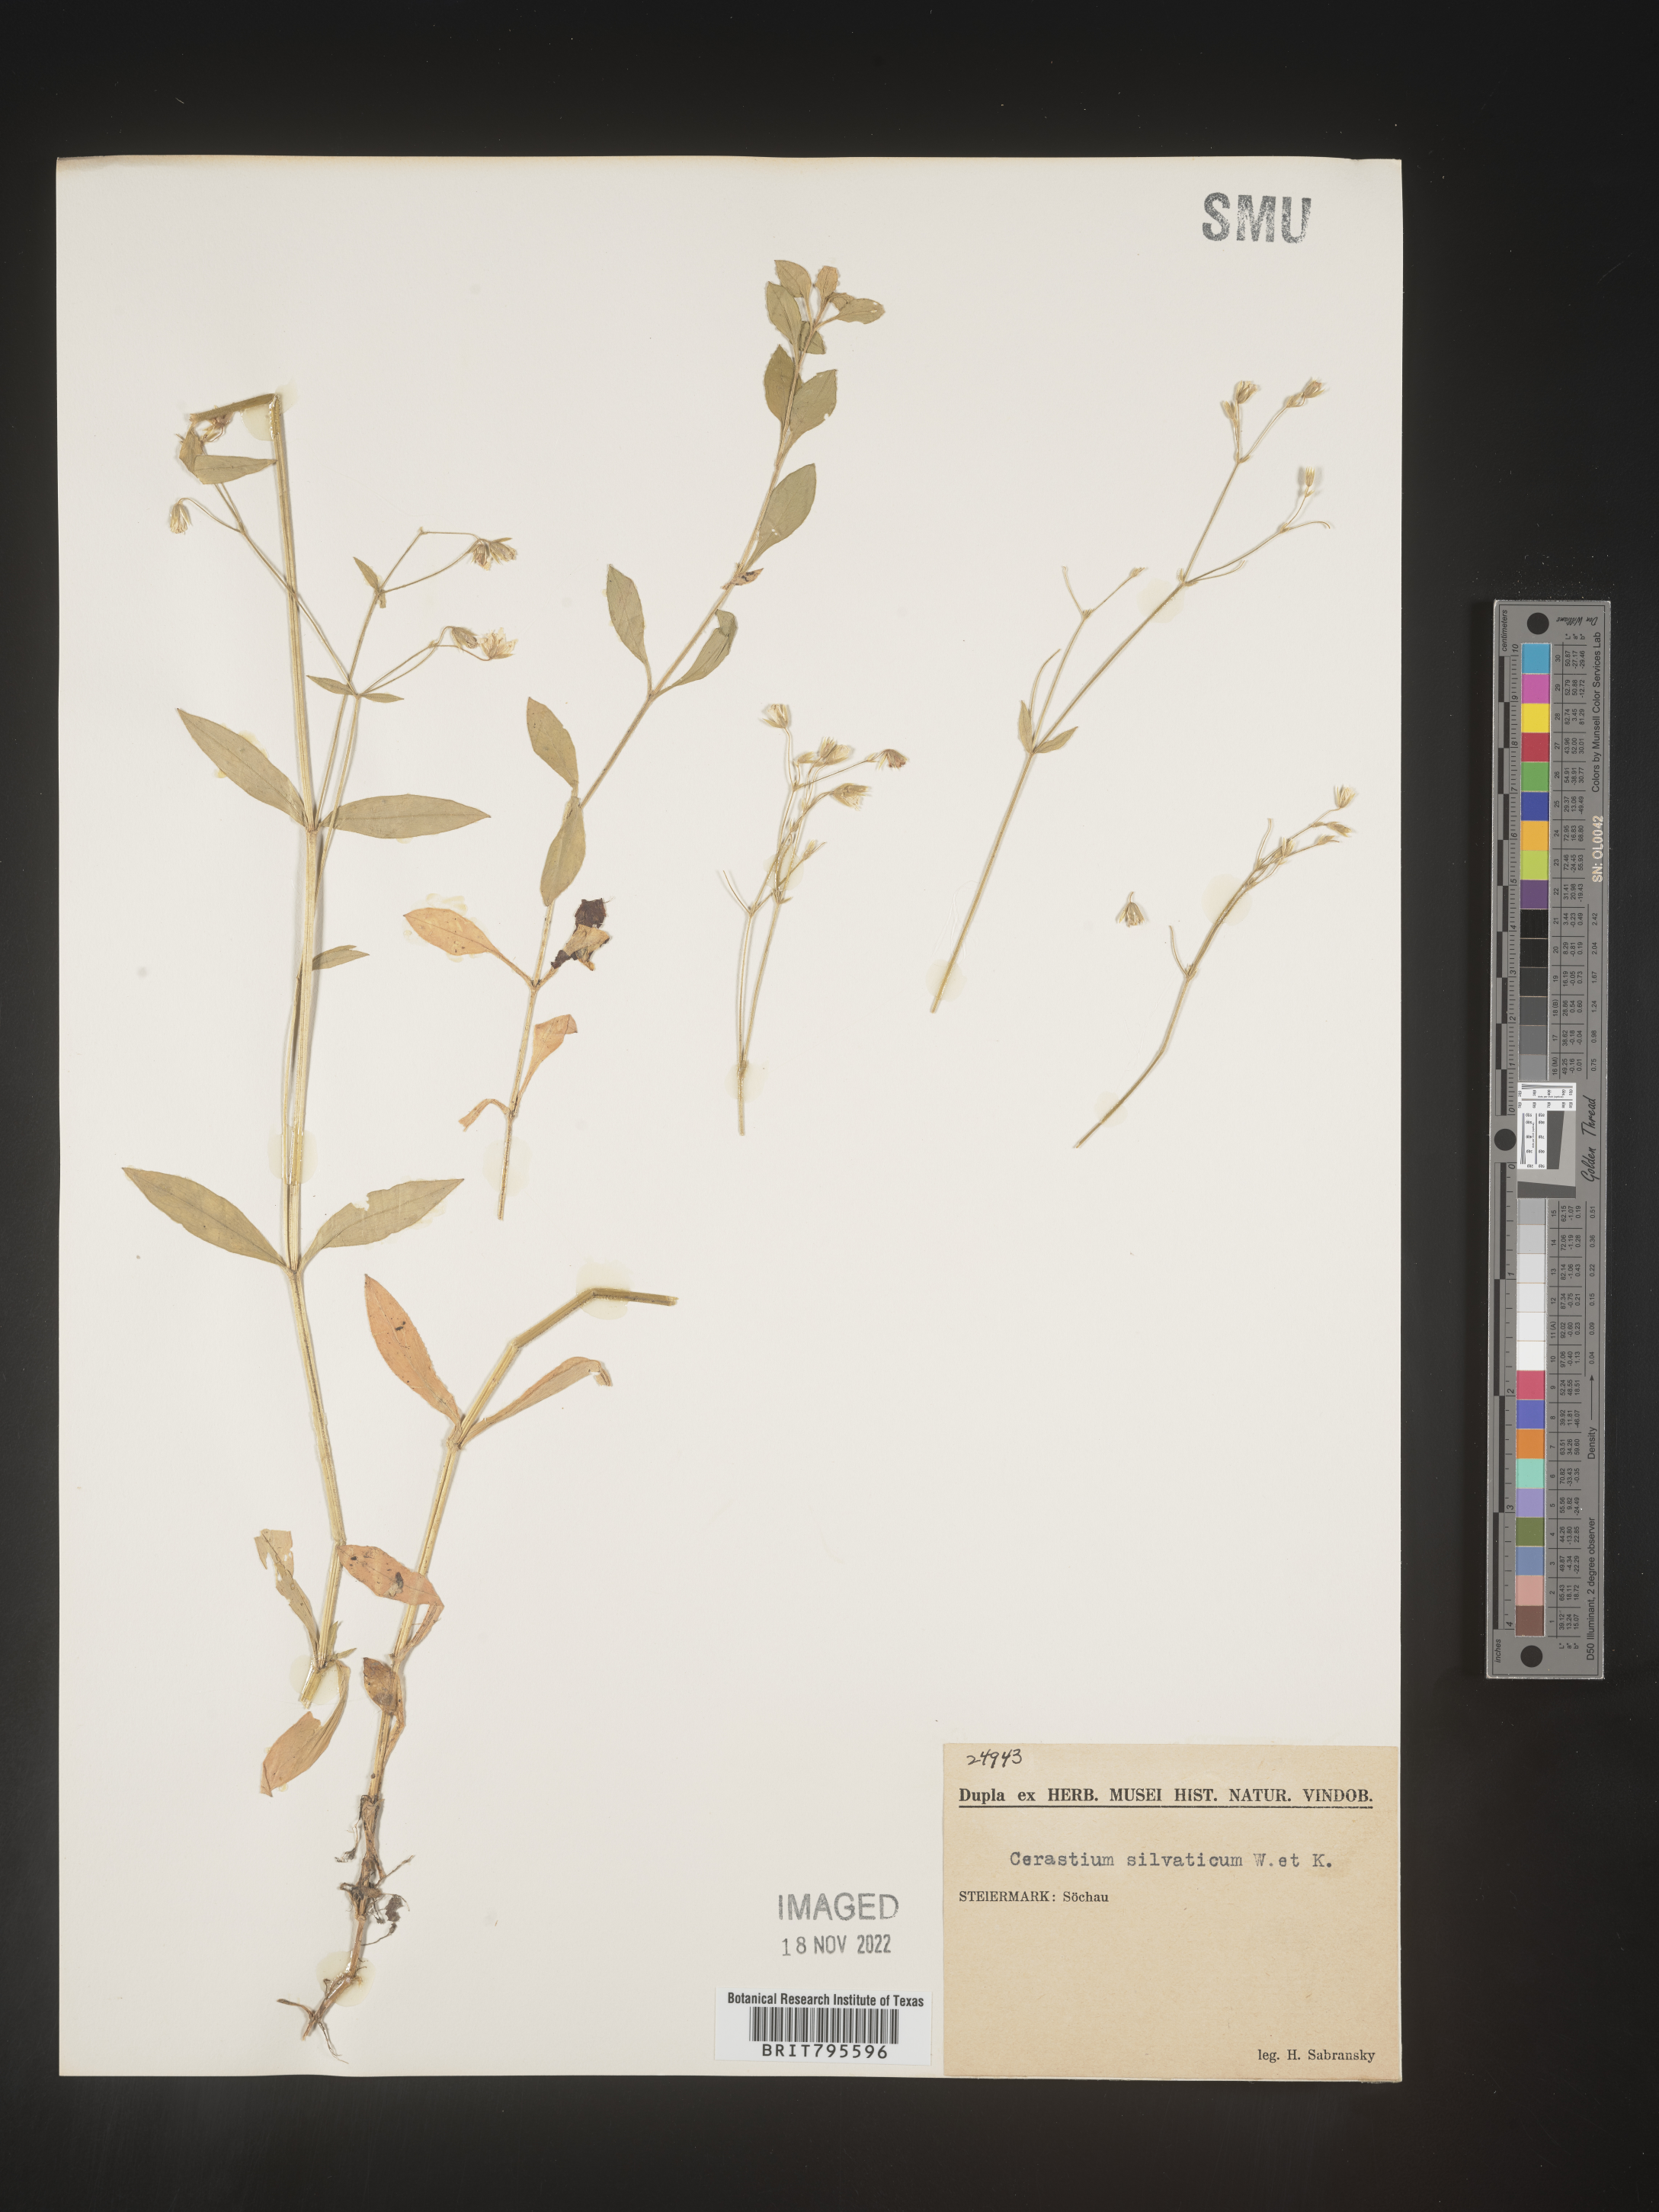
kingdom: Plantae
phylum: Tracheophyta
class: Magnoliopsida
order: Caryophyllales
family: Caryophyllaceae
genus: Cerastium
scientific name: Cerastium
